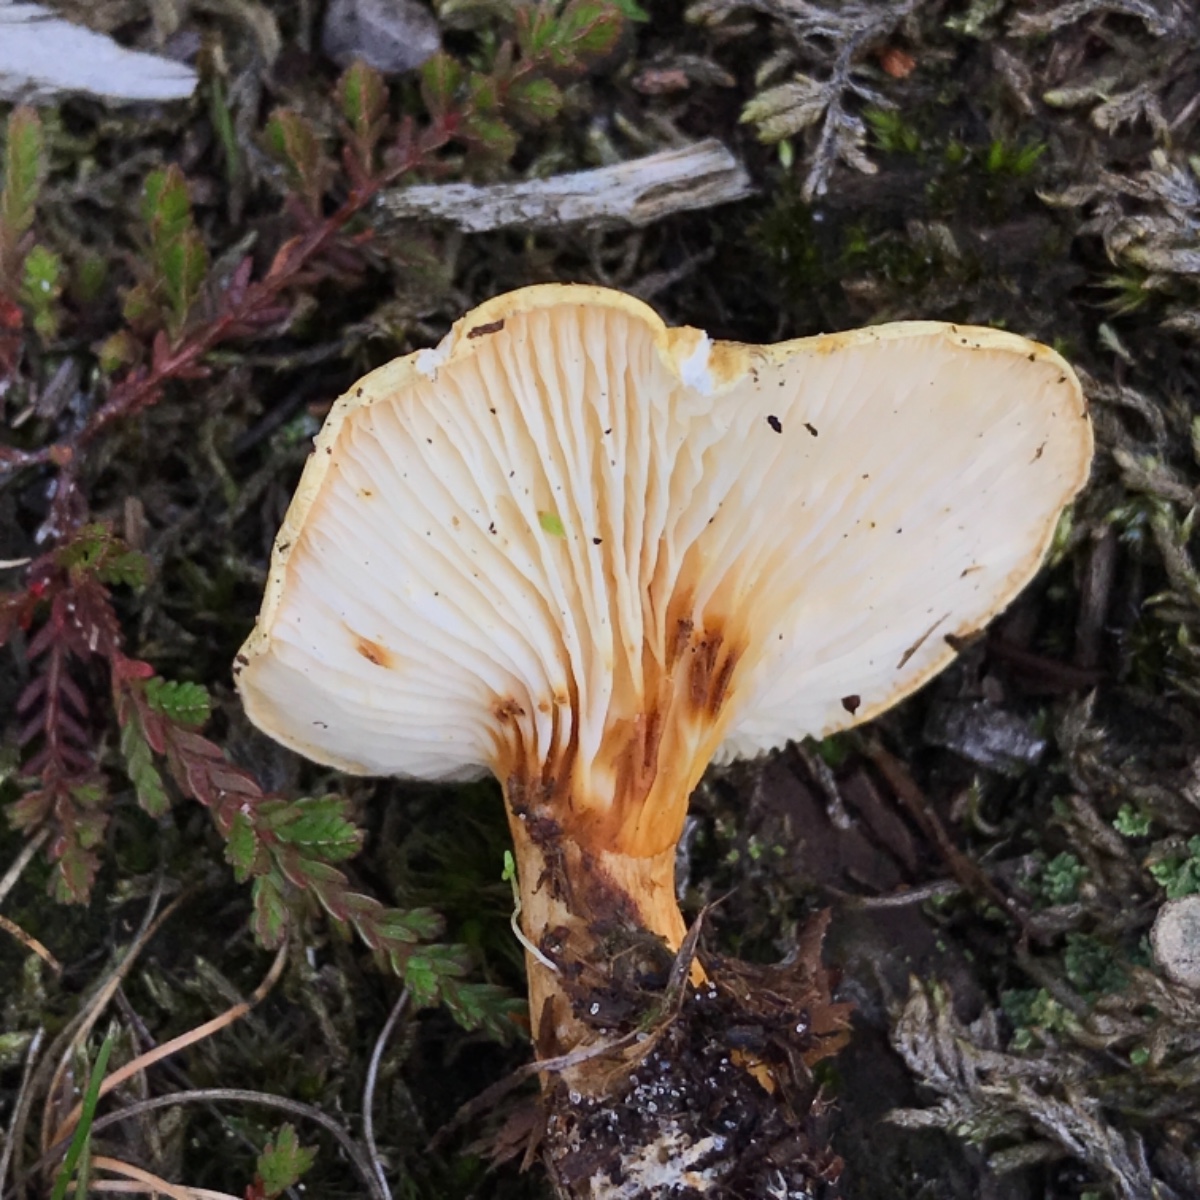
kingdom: Fungi
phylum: Basidiomycota
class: Agaricomycetes
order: Boletales
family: Hygrophoropsidaceae
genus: Hygrophoropsis
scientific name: Hygrophoropsis pallida
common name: bleg orangekantarel
